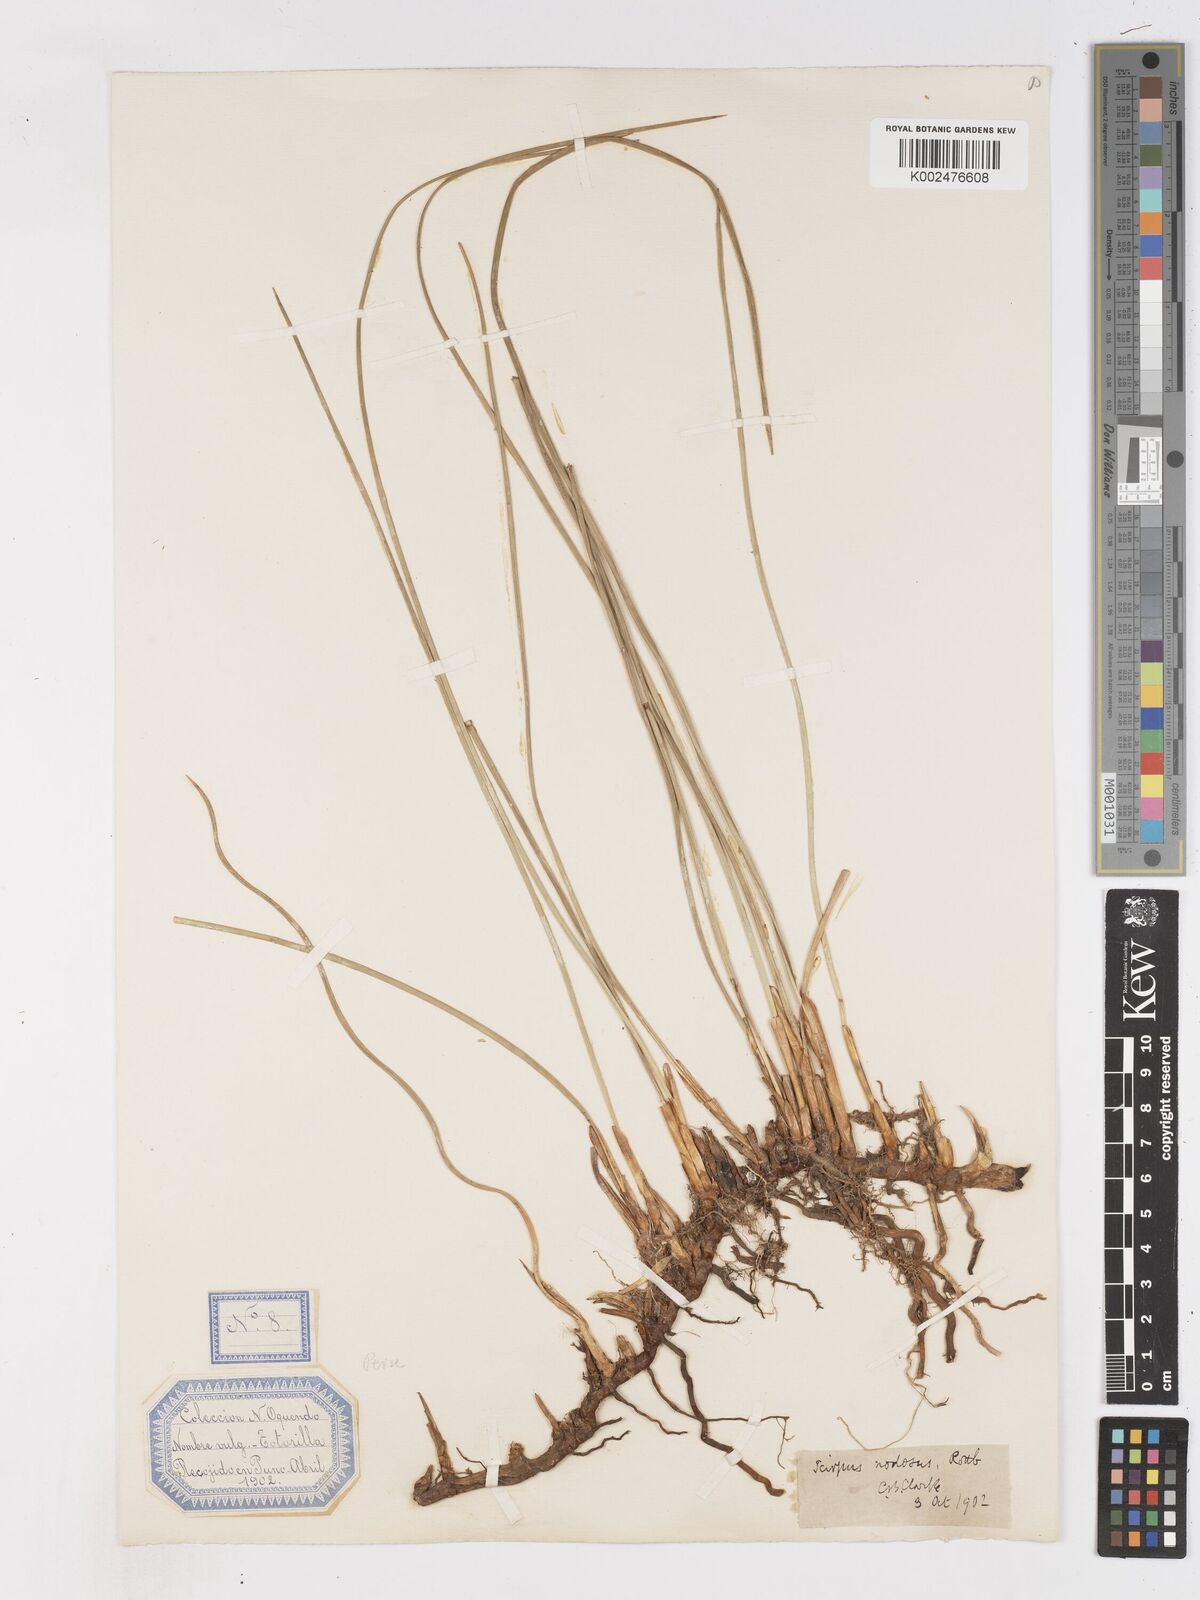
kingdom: Plantae
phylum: Tracheophyta
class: Liliopsida
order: Poales
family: Cyperaceae
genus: Ficinia
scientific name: Ficinia nodosa
